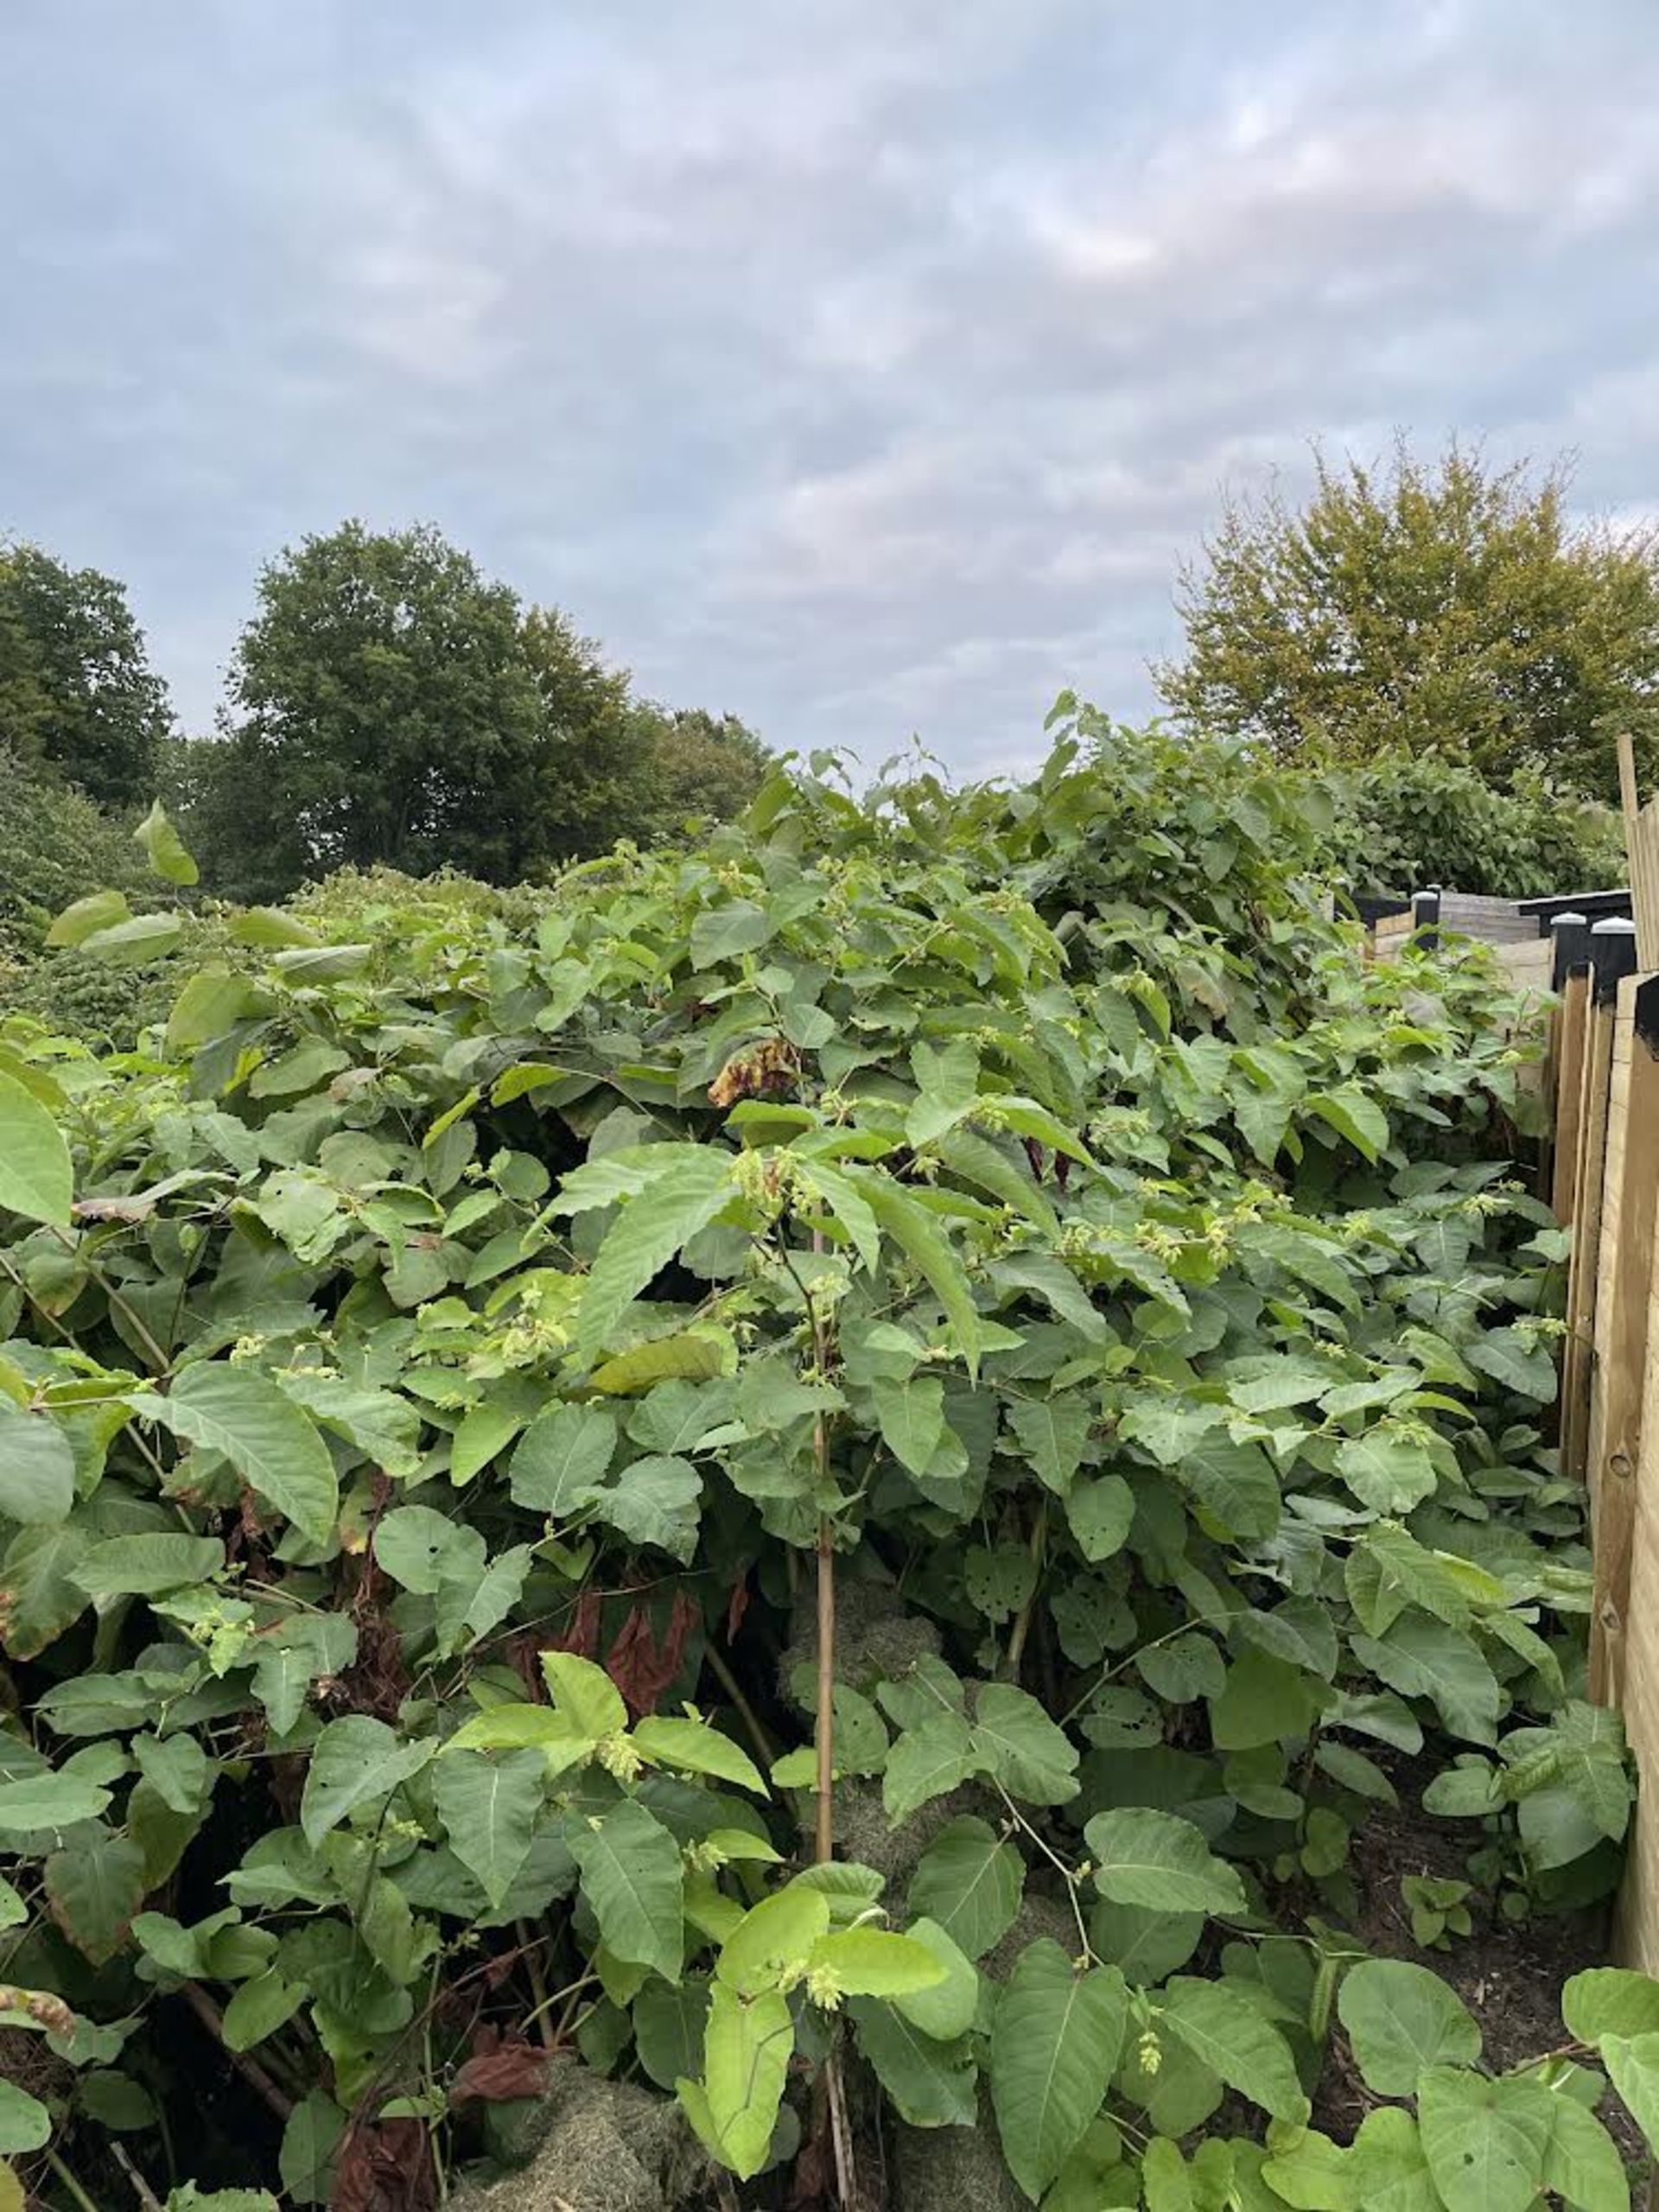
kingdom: Plantae
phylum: Tracheophyta
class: Magnoliopsida
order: Caryophyllales
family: Polygonaceae
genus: Reynoutria
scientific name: Reynoutria sachalinensis
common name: Kæmpe-pileurt
